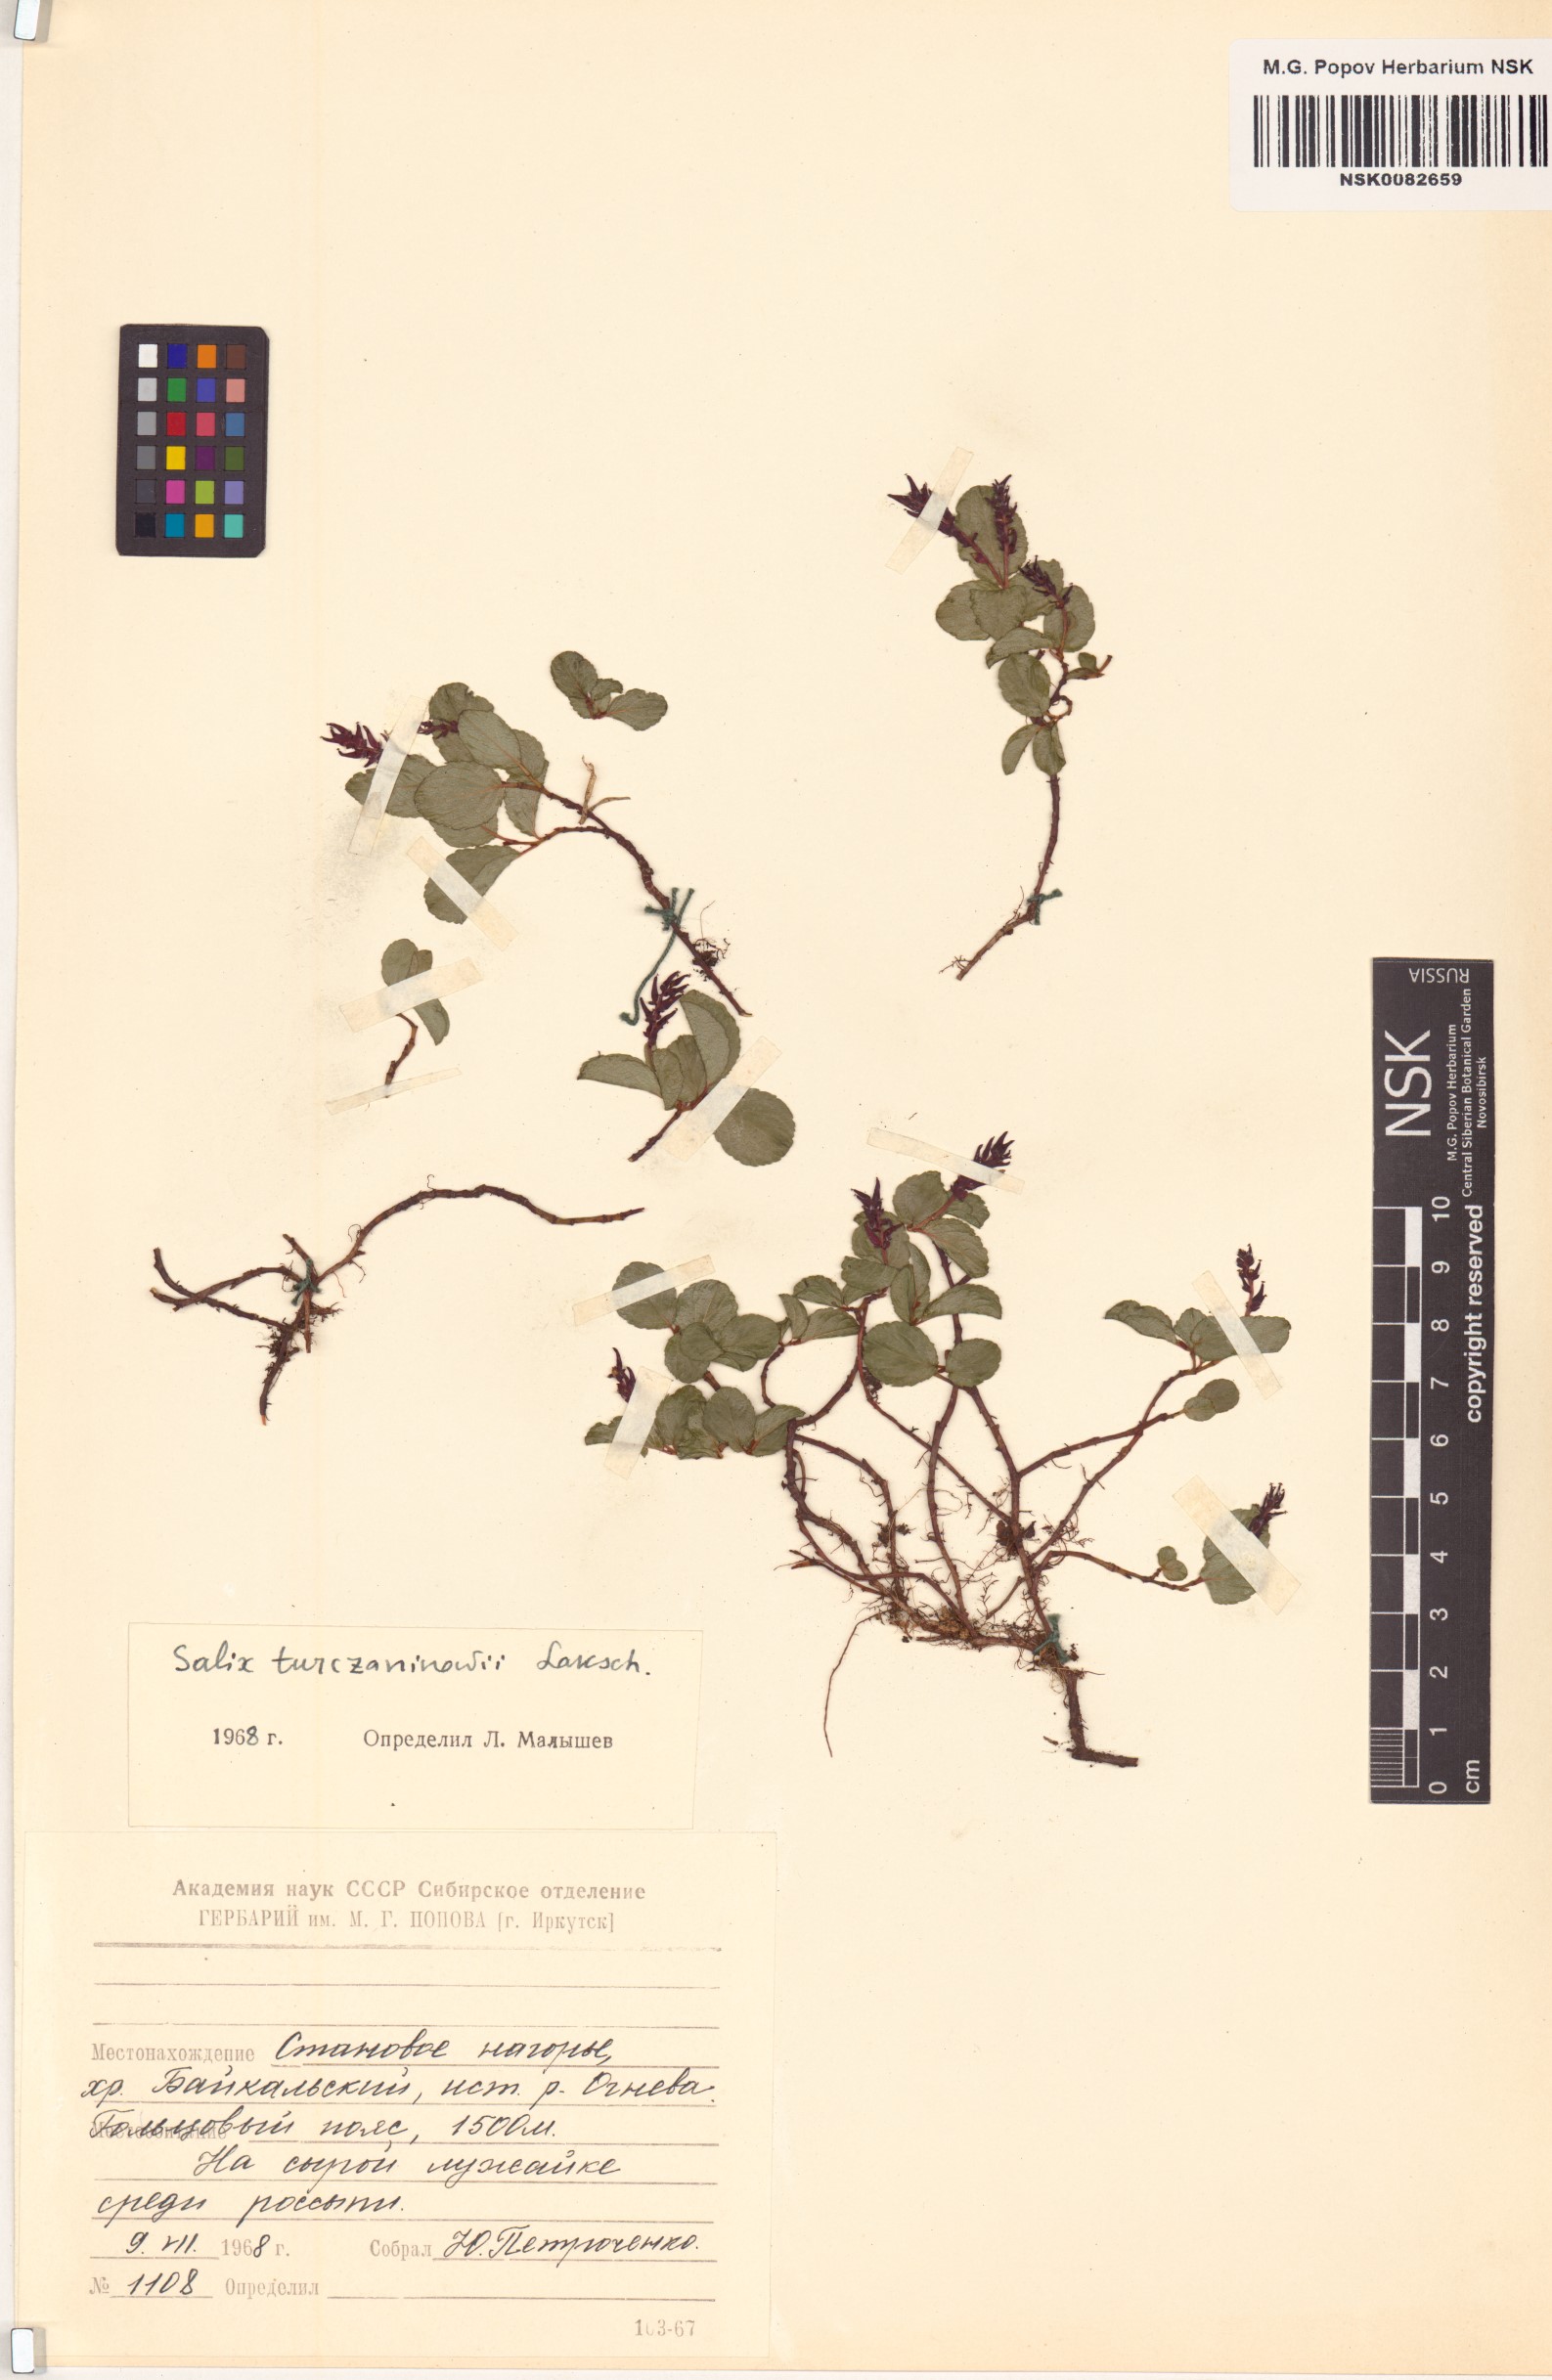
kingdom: Plantae
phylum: Tracheophyta
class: Magnoliopsida
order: Malpighiales
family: Salicaceae
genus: Salix
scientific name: Salix turczaninowii
